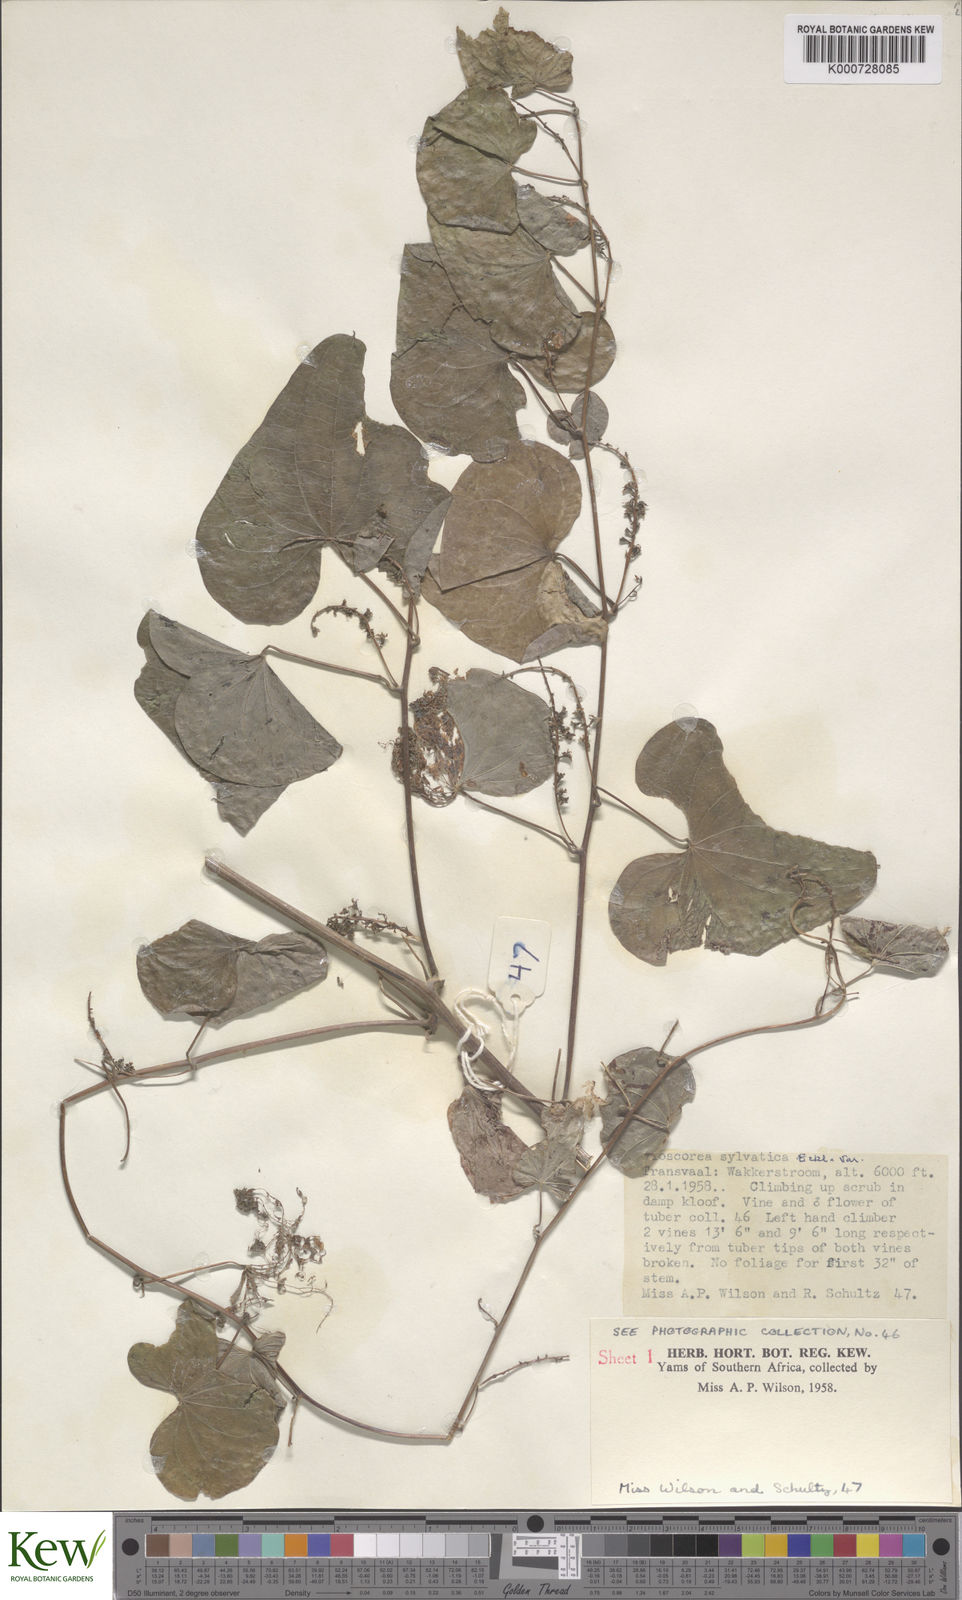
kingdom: Plantae
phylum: Tracheophyta
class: Liliopsida
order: Dioscoreales
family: Dioscoreaceae
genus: Dioscorea
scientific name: Dioscorea sylvatica
